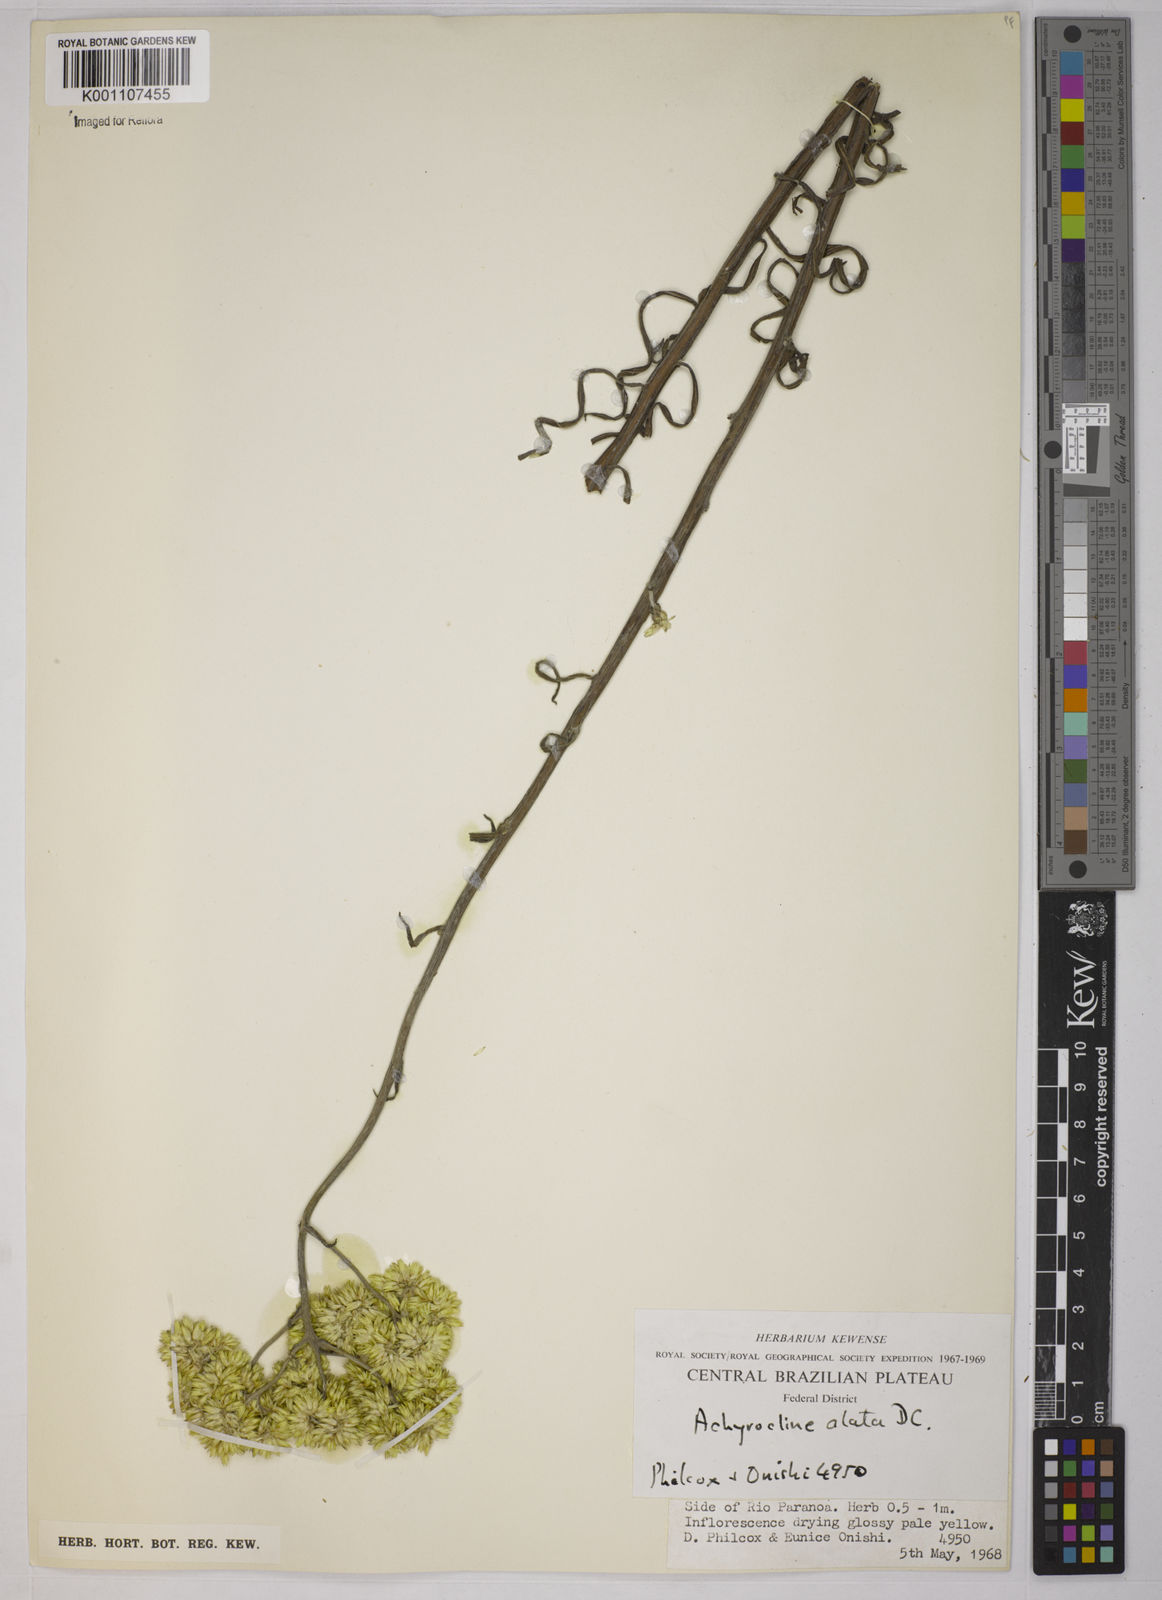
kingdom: Plantae
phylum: Tracheophyta
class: Magnoliopsida
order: Asterales
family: Asteraceae
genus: Achyrocline
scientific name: Achyrocline alata
